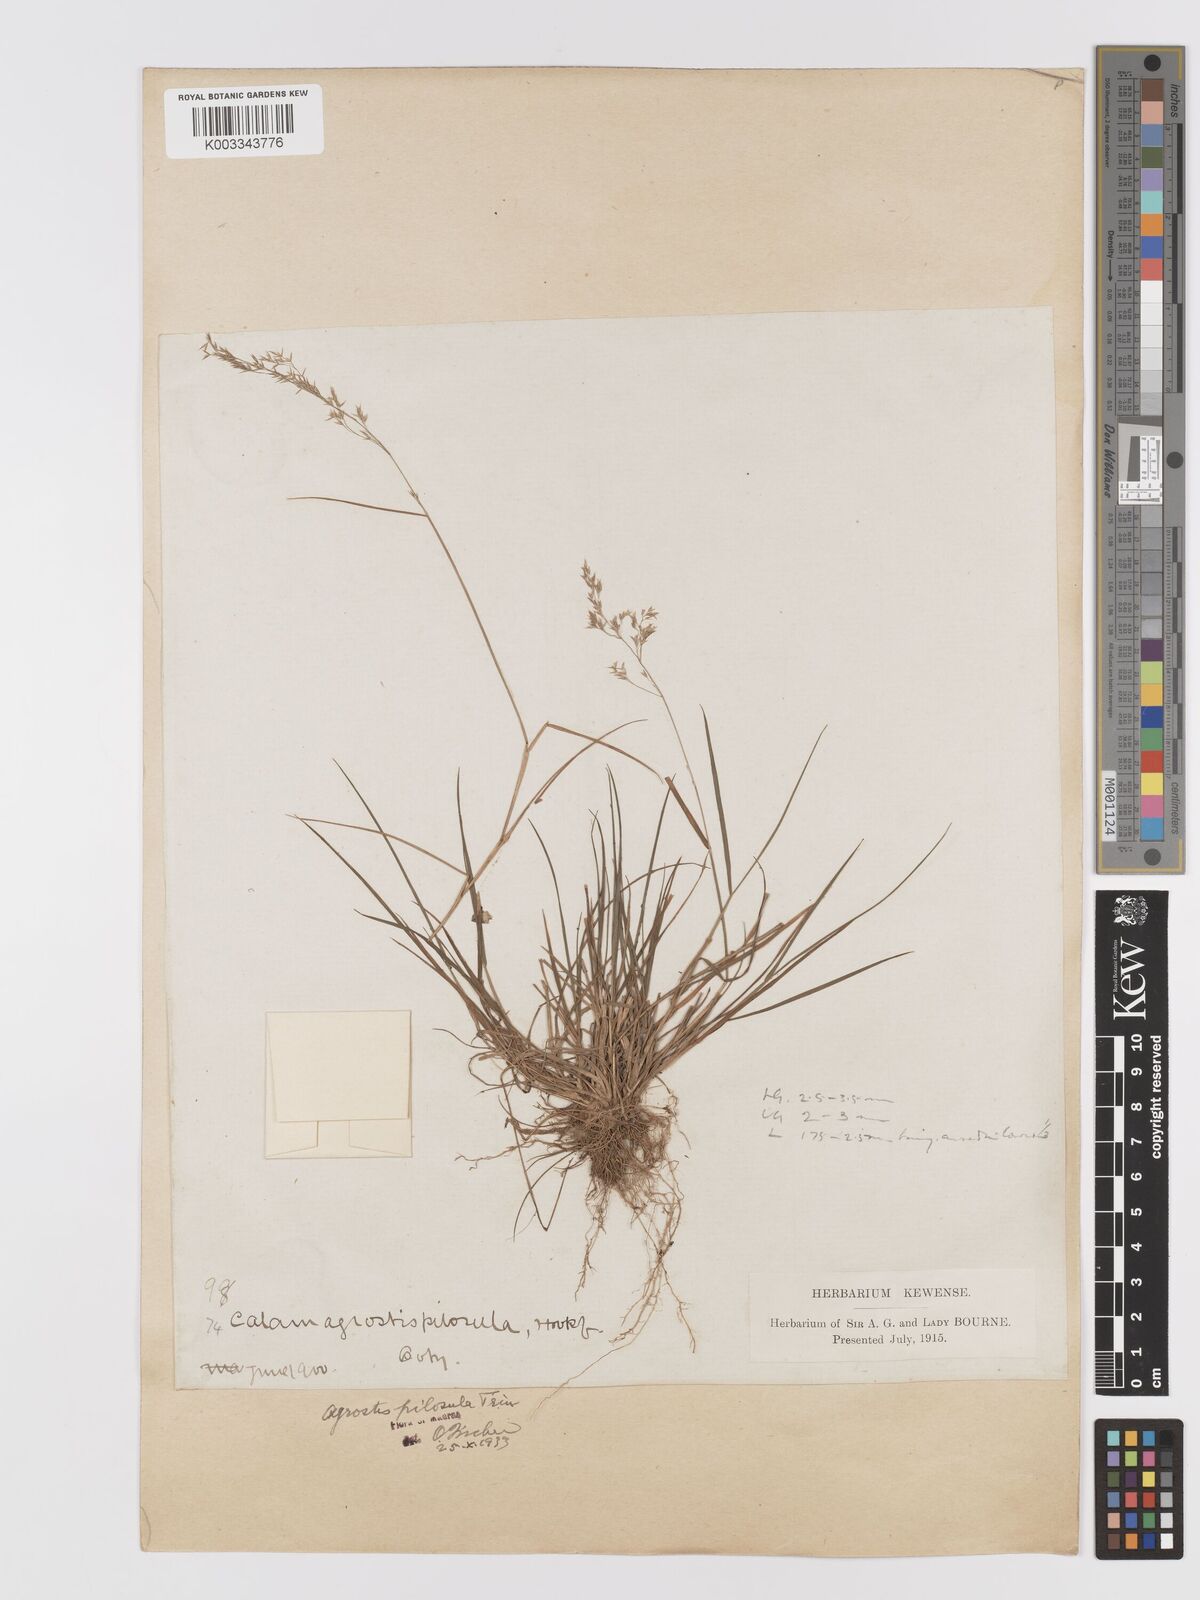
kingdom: Plantae
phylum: Tracheophyta
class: Liliopsida
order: Poales
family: Poaceae
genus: Agrostis
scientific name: Agrostis pilosula
